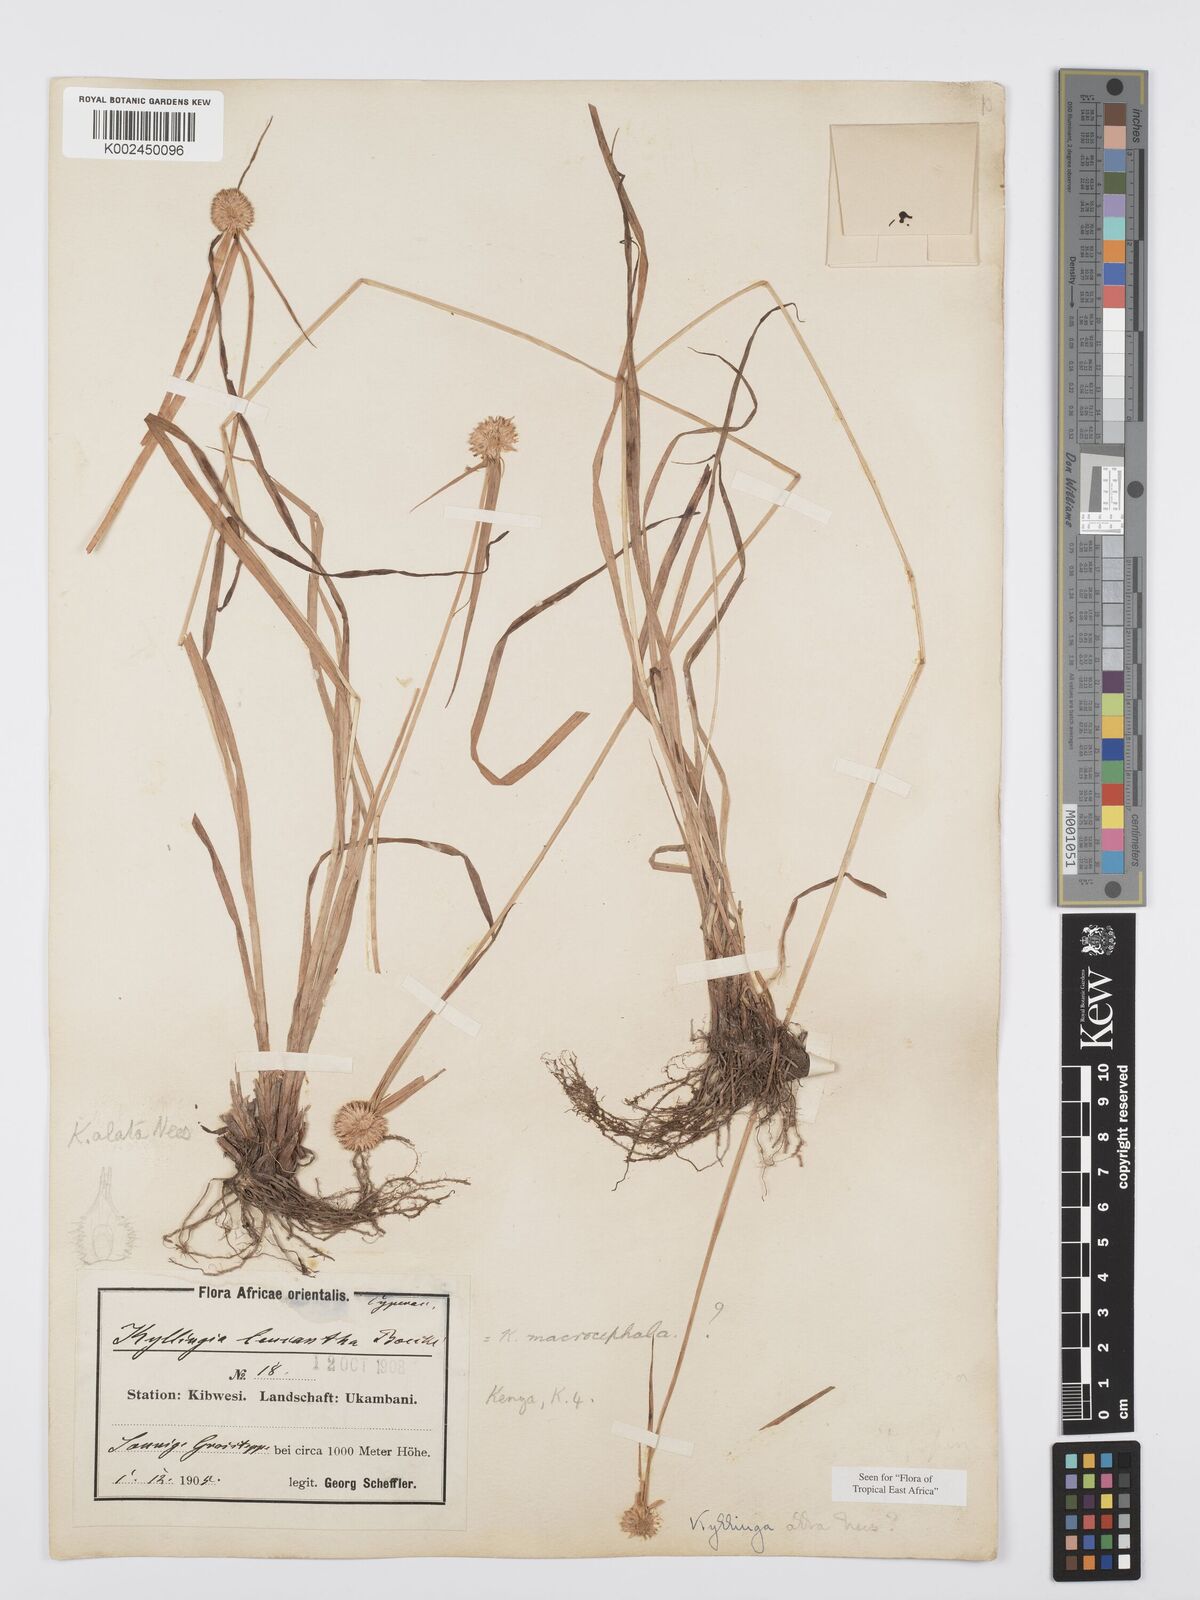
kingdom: Plantae
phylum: Tracheophyta
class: Liliopsida
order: Poales
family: Cyperaceae
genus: Cyperus
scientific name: Cyperus
